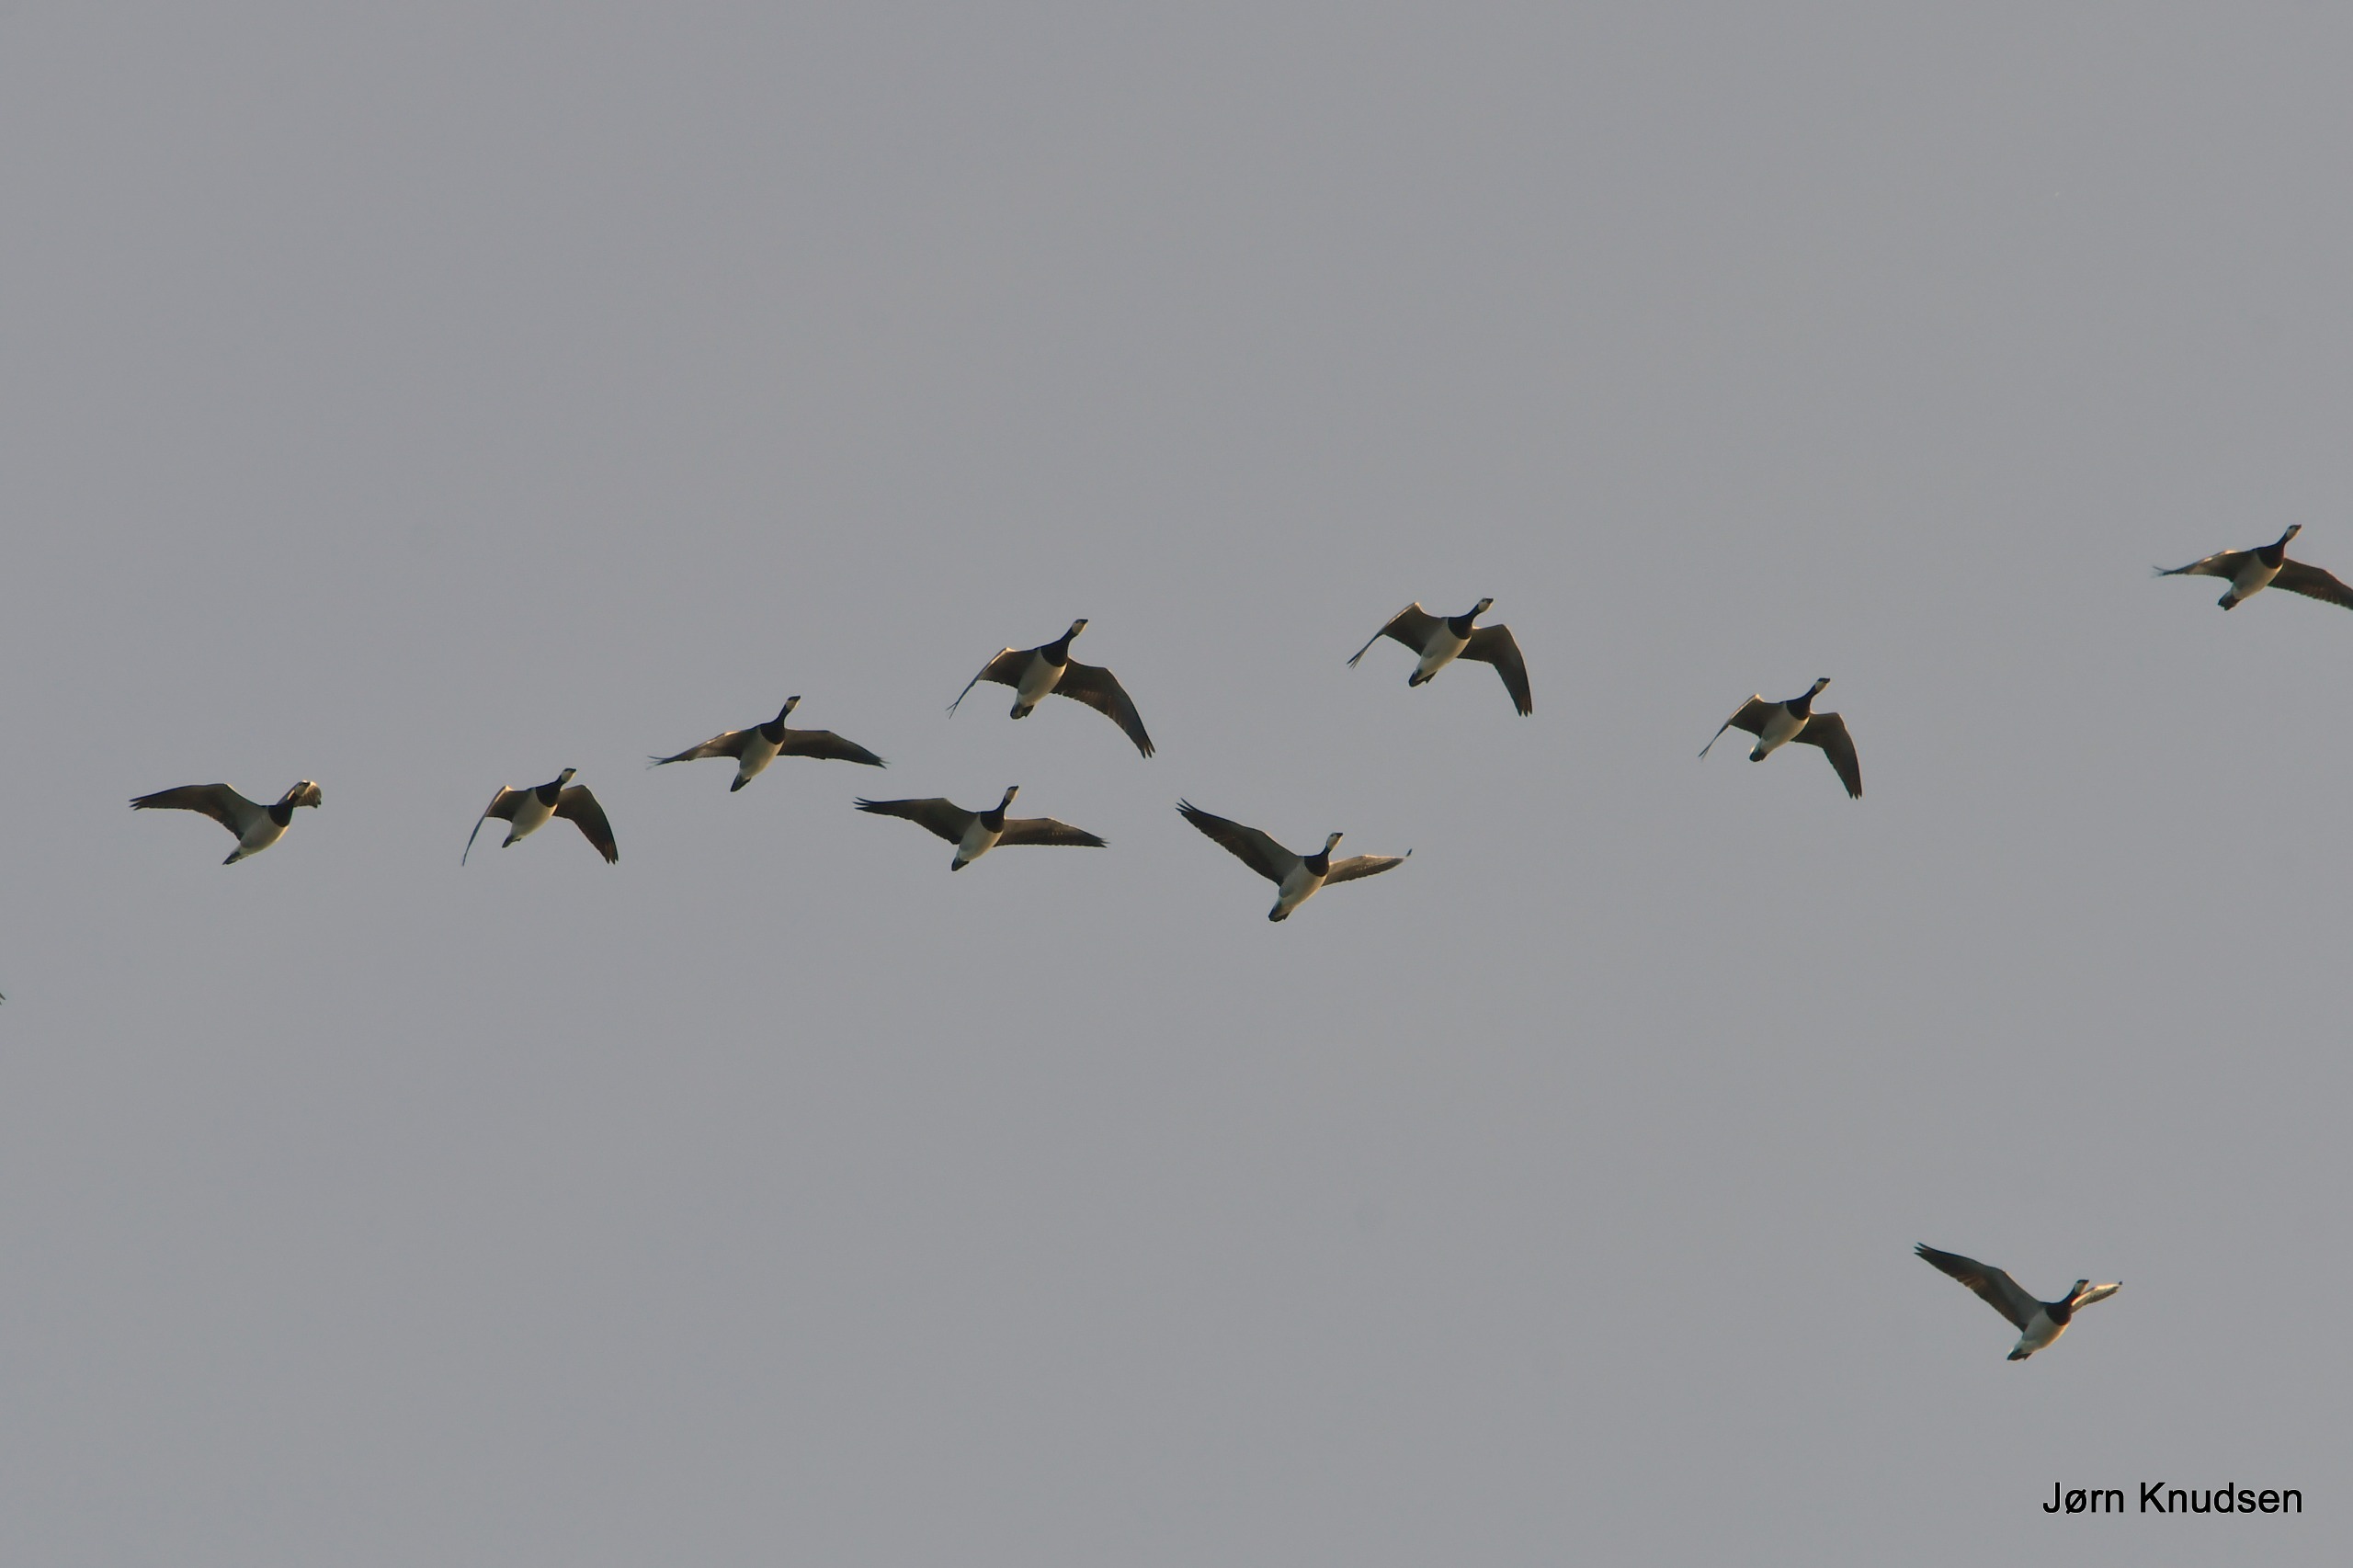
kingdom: Animalia
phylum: Chordata
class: Aves
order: Anseriformes
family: Anatidae
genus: Branta
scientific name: Branta leucopsis
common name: Bramgås
